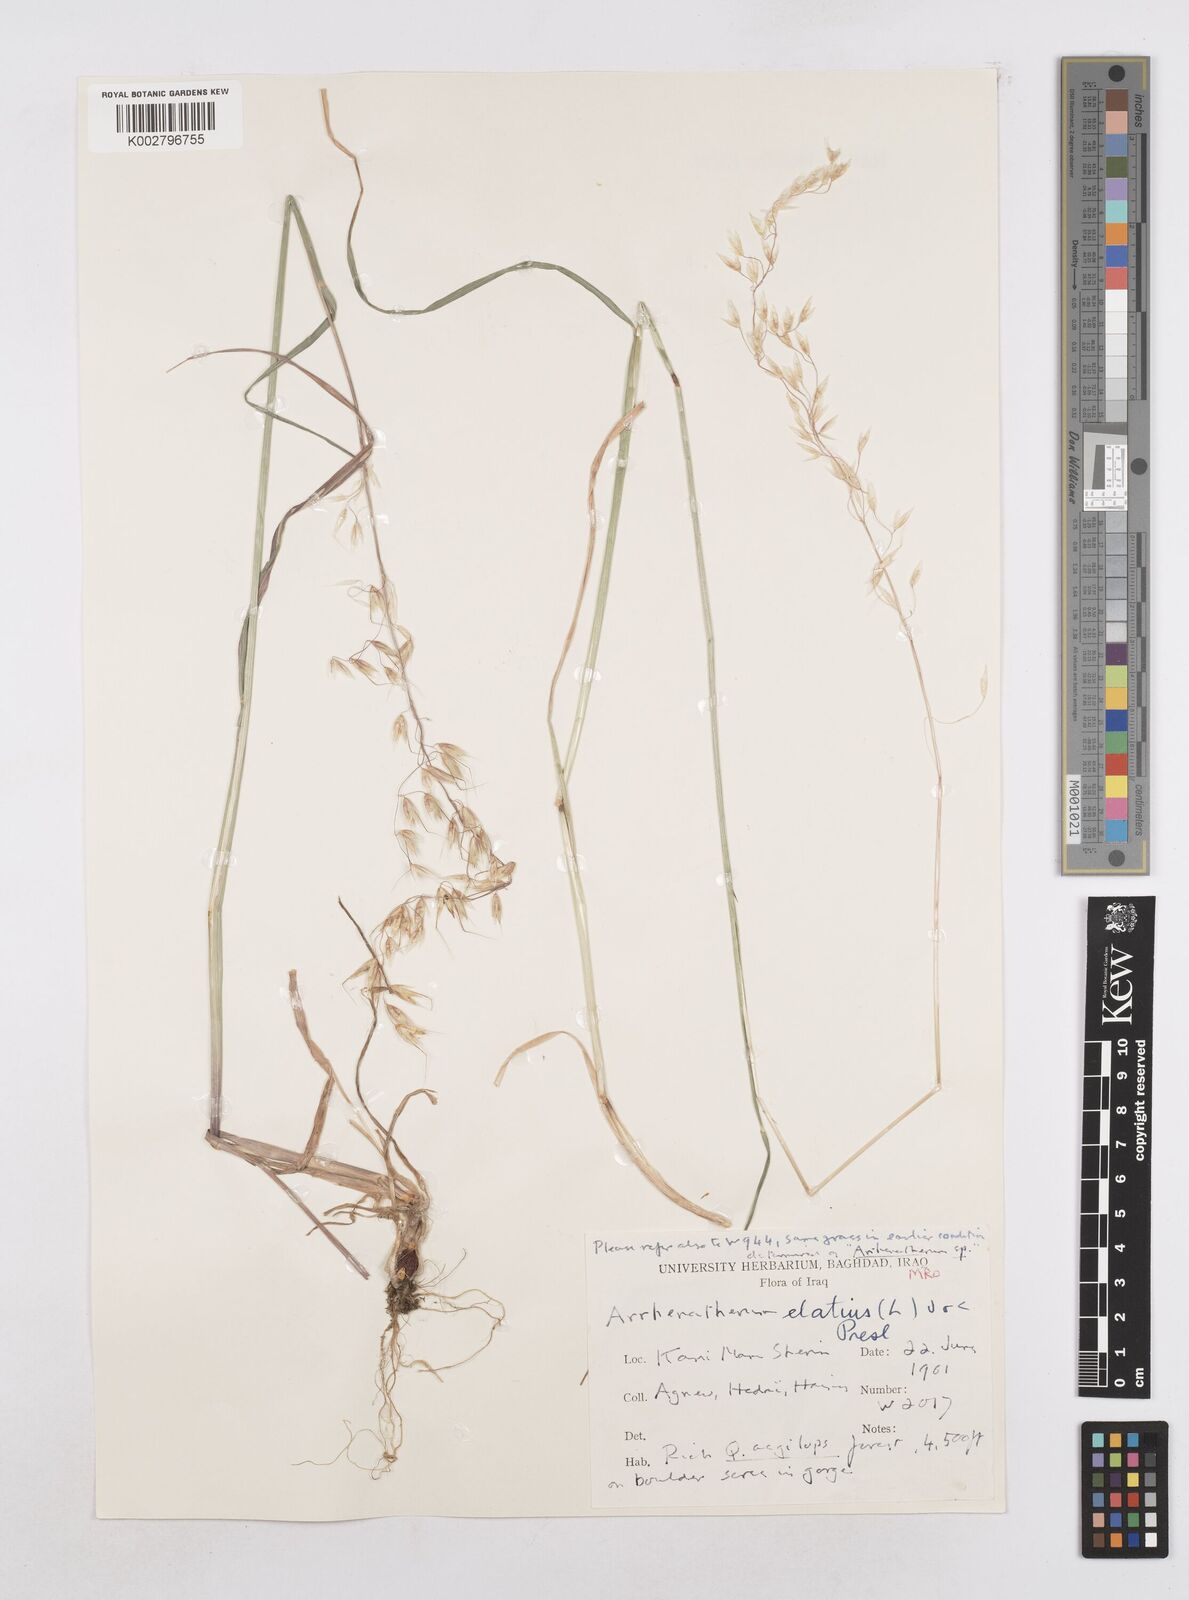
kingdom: Plantae
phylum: Tracheophyta
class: Liliopsida
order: Poales
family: Poaceae
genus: Arrhenatherum
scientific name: Arrhenatherum elatius
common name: Tall oatgrass
